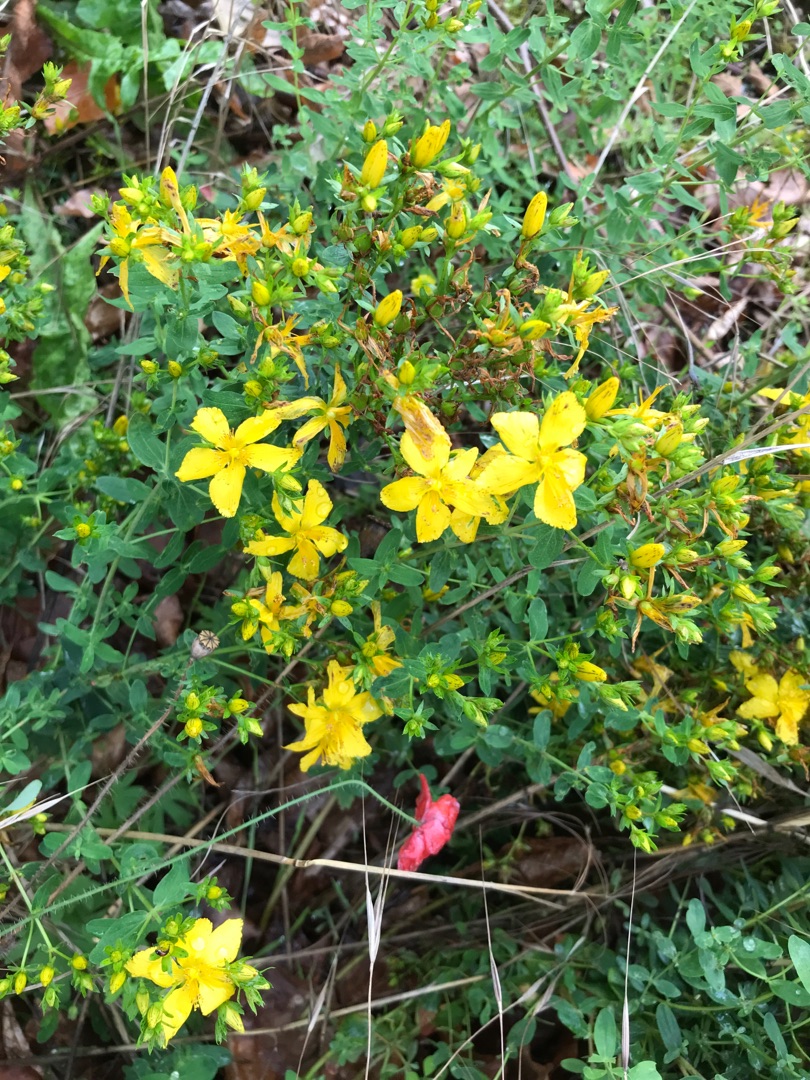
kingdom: Plantae
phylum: Tracheophyta
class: Magnoliopsida
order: Malpighiales
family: Hypericaceae
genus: Hypericum
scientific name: Hypericum perforatum
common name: Prikbladet perikon
